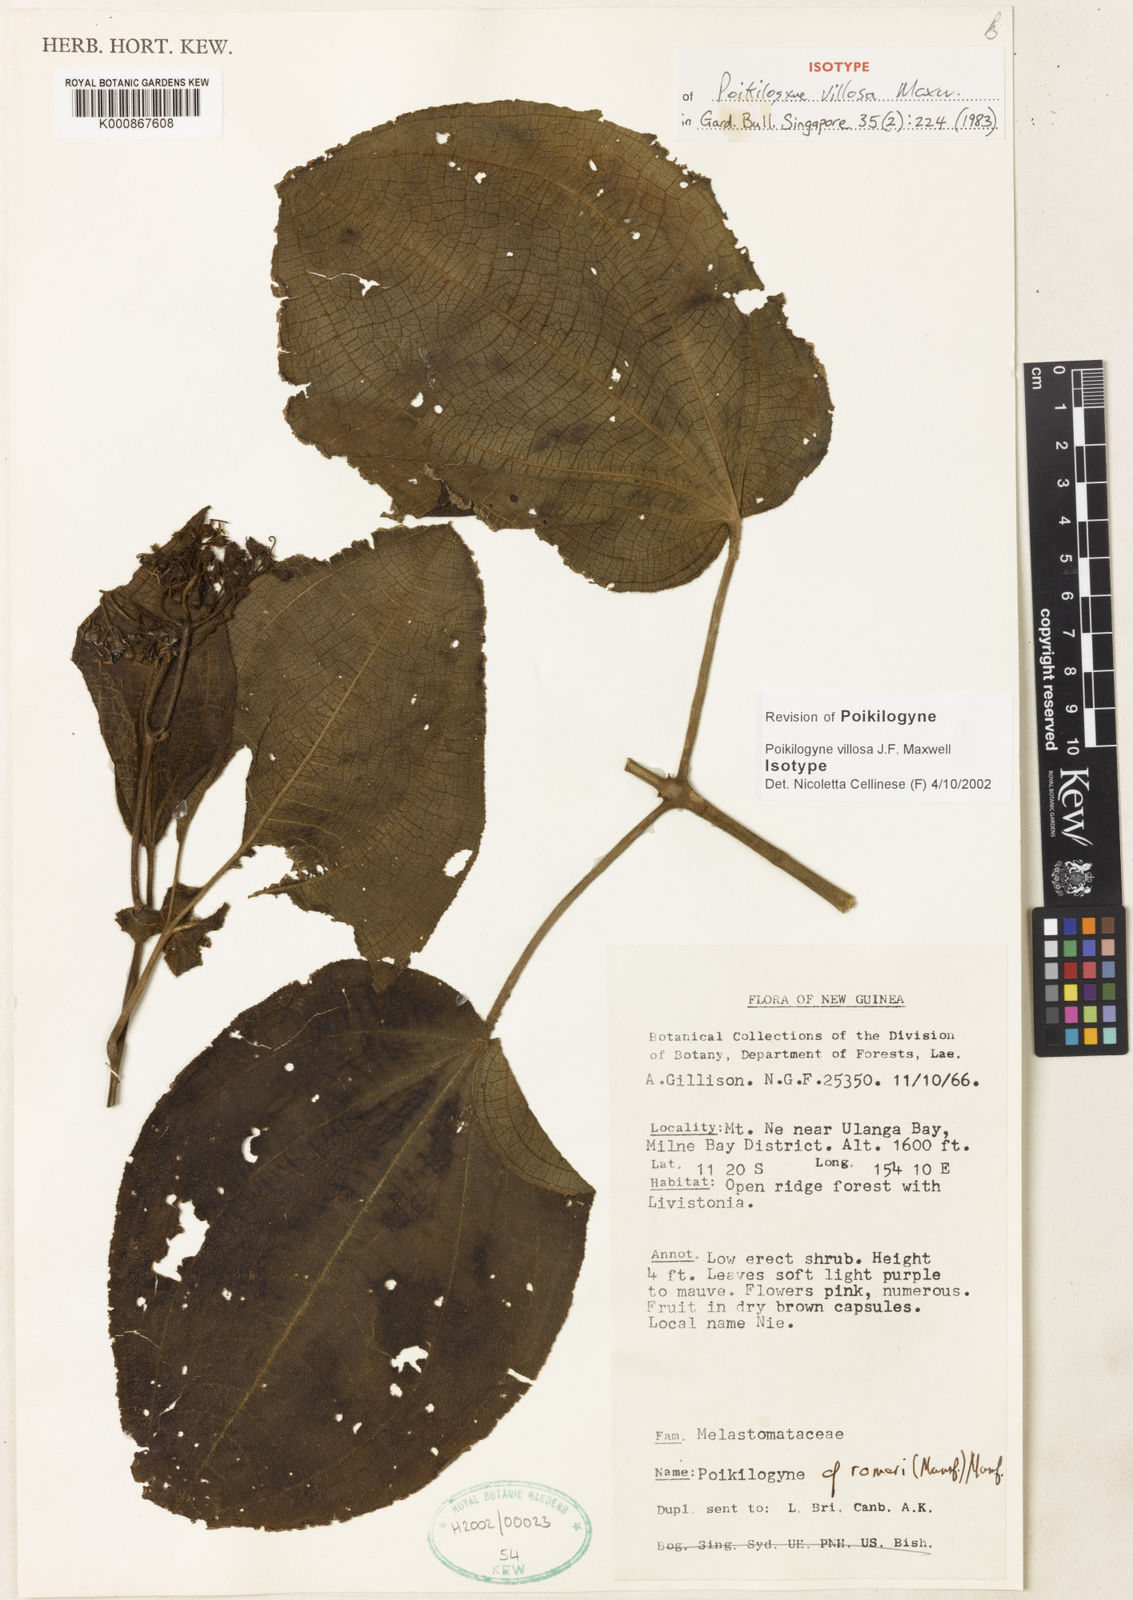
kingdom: Plantae
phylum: Tracheophyta
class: Magnoliopsida
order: Myrtales
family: Melastomataceae
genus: Poikilogyne
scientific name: Poikilogyne villosa
